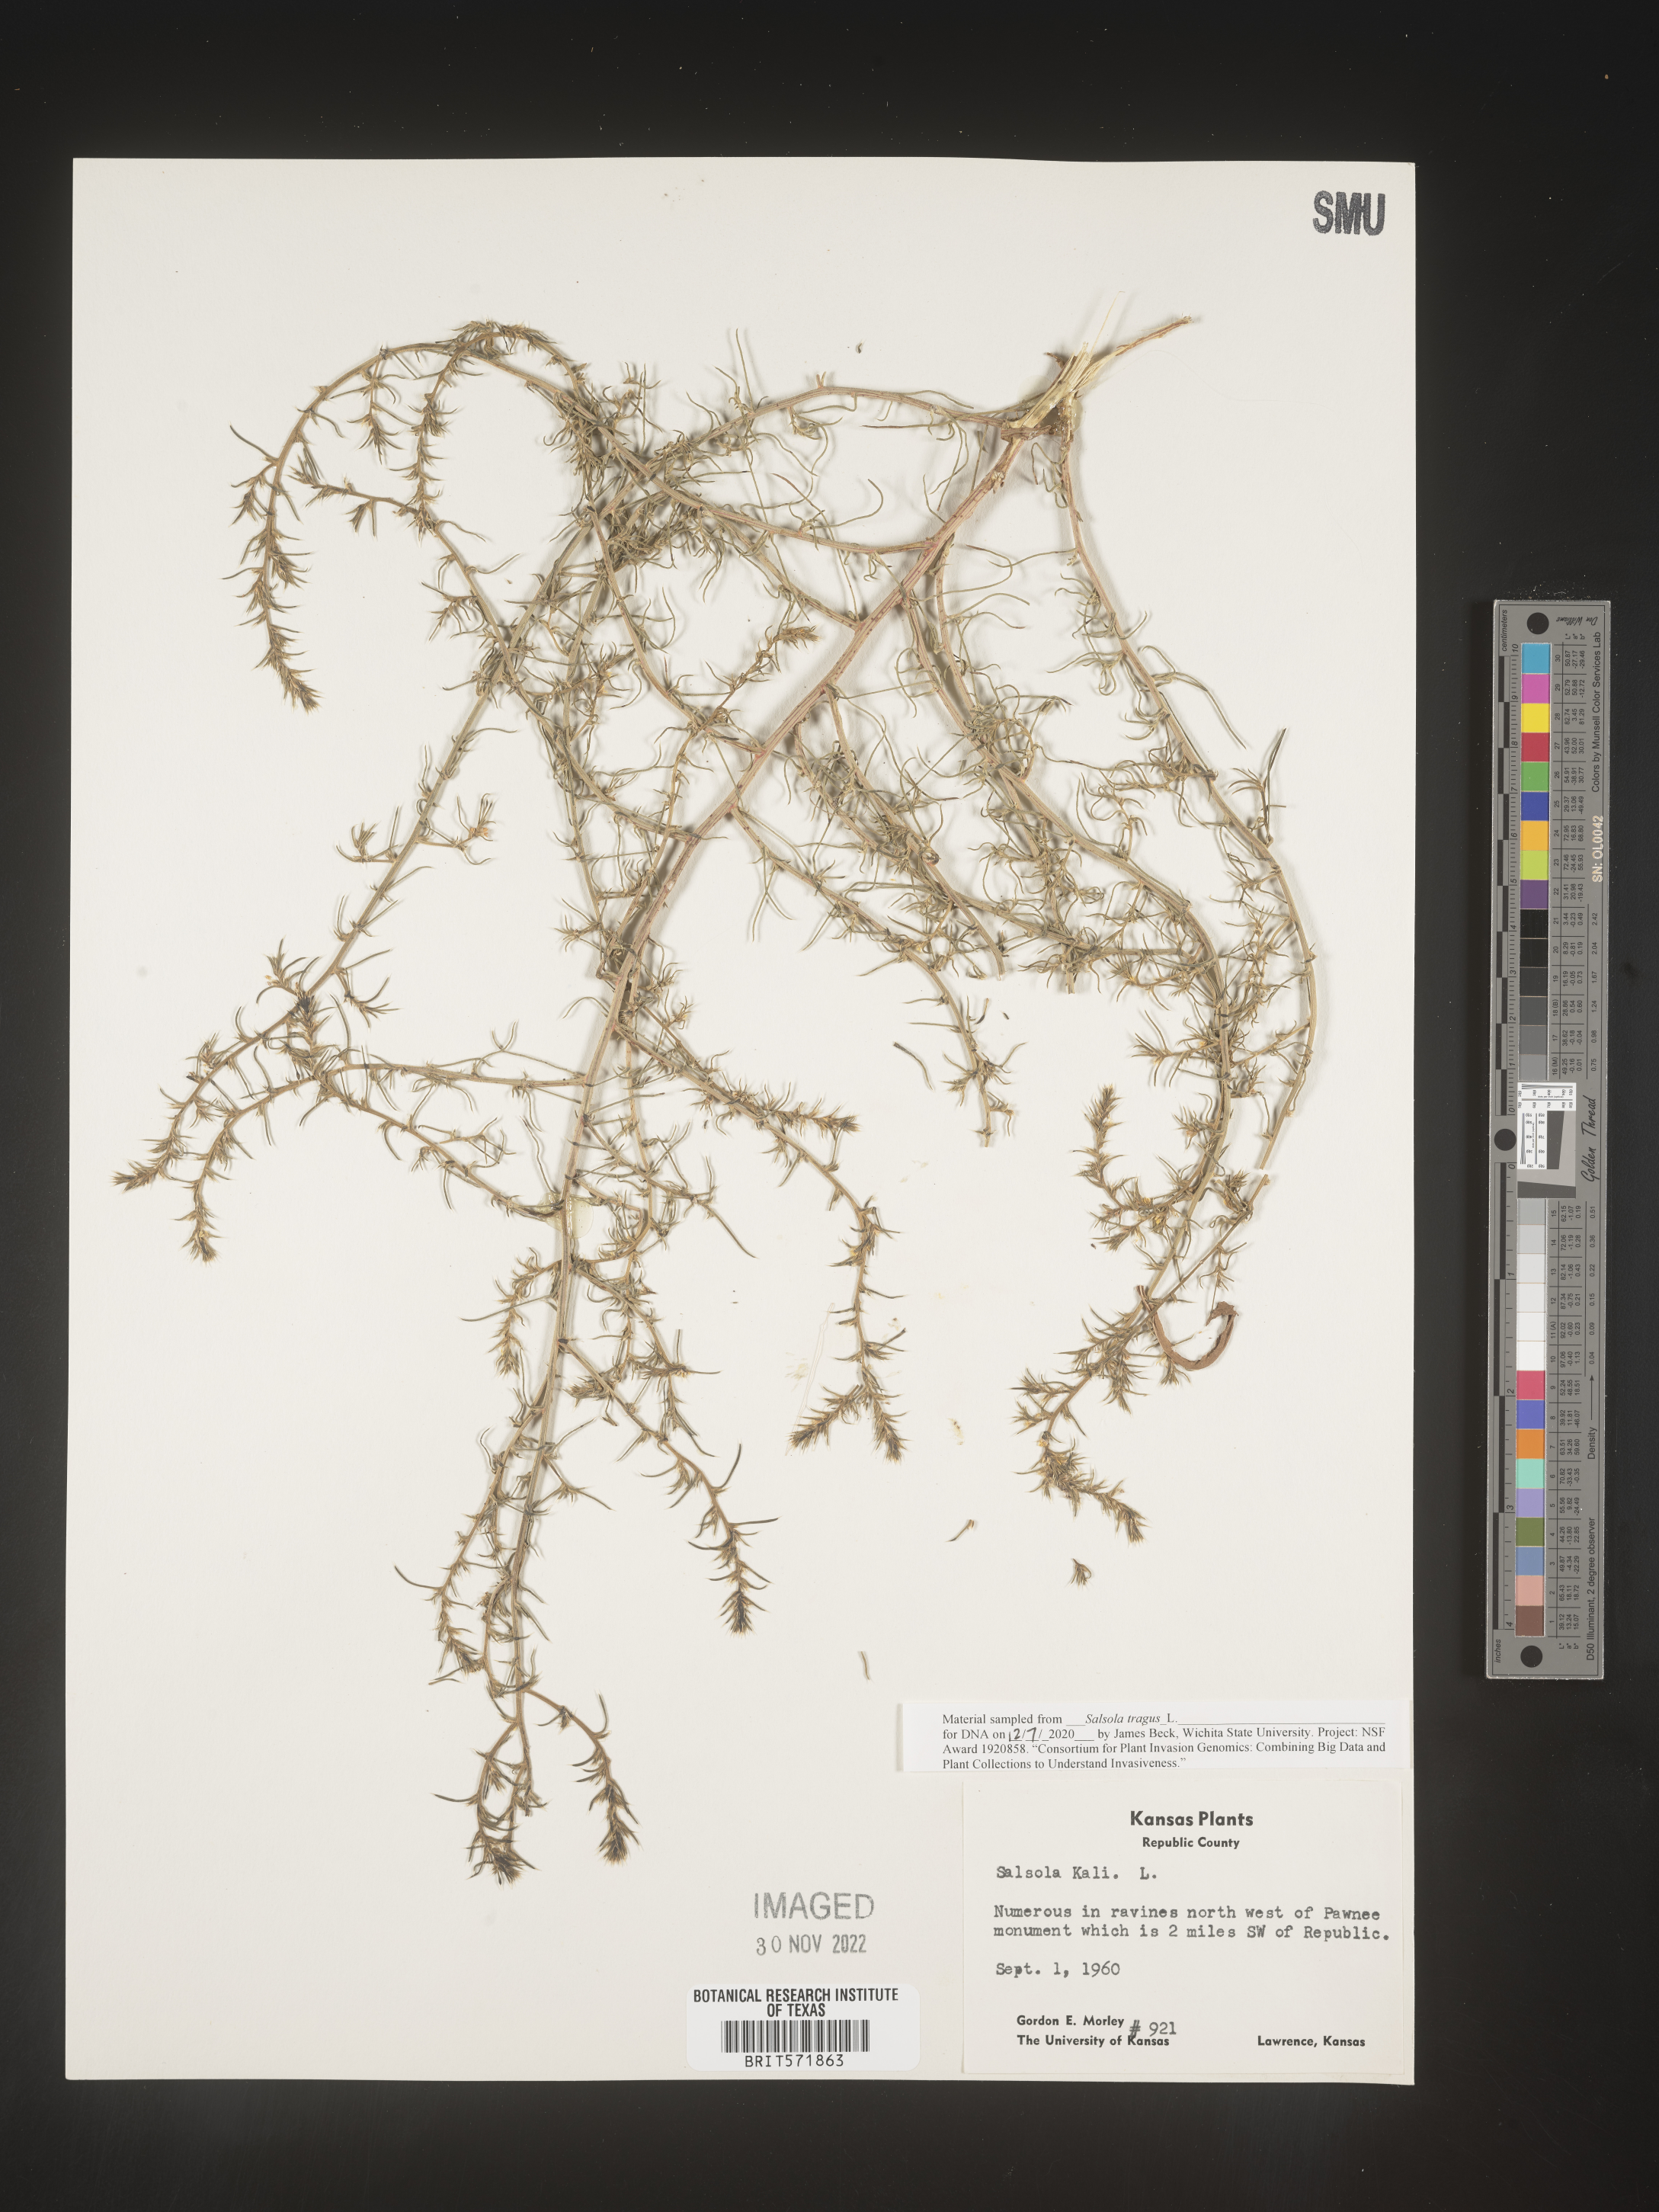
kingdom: Plantae
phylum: Tracheophyta
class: Magnoliopsida
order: Caryophyllales
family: Amaranthaceae
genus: Salsola
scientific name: Salsola tragus
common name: Prickly russian thistle
